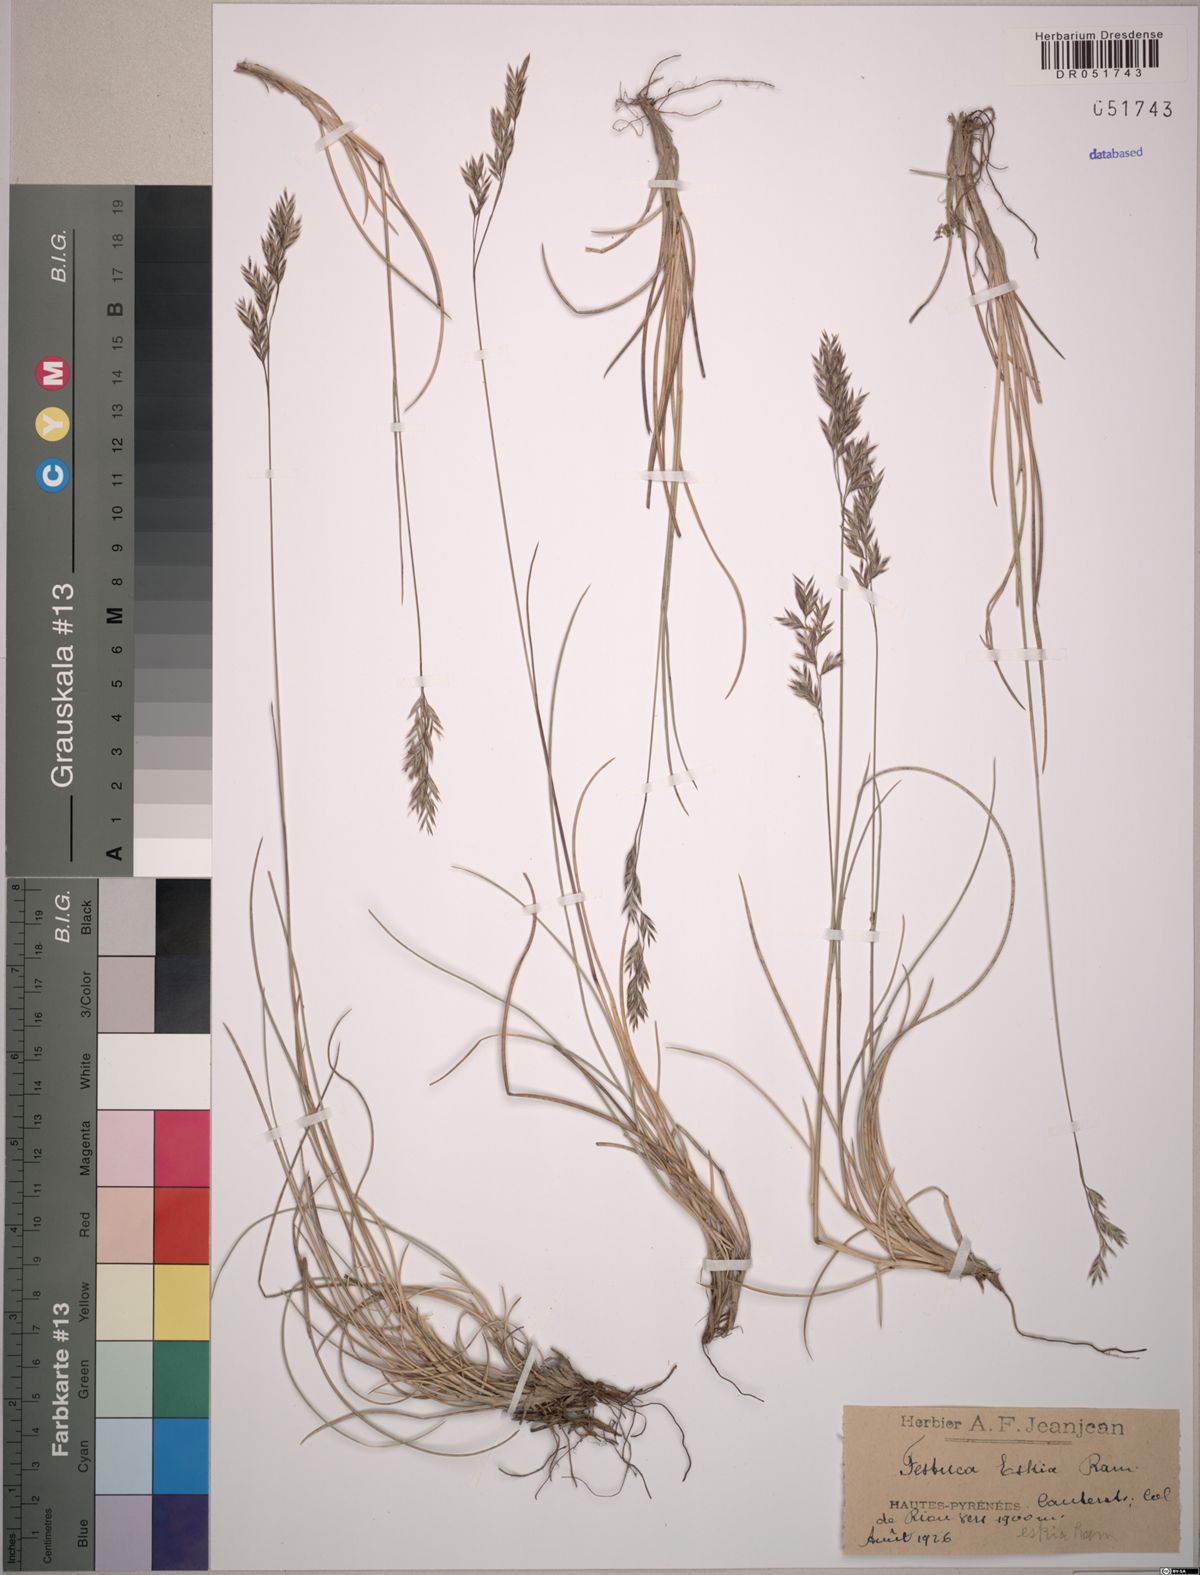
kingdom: Plantae
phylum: Tracheophyta
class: Liliopsida
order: Poales
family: Poaceae
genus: Festuca
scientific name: Festuca eskia
